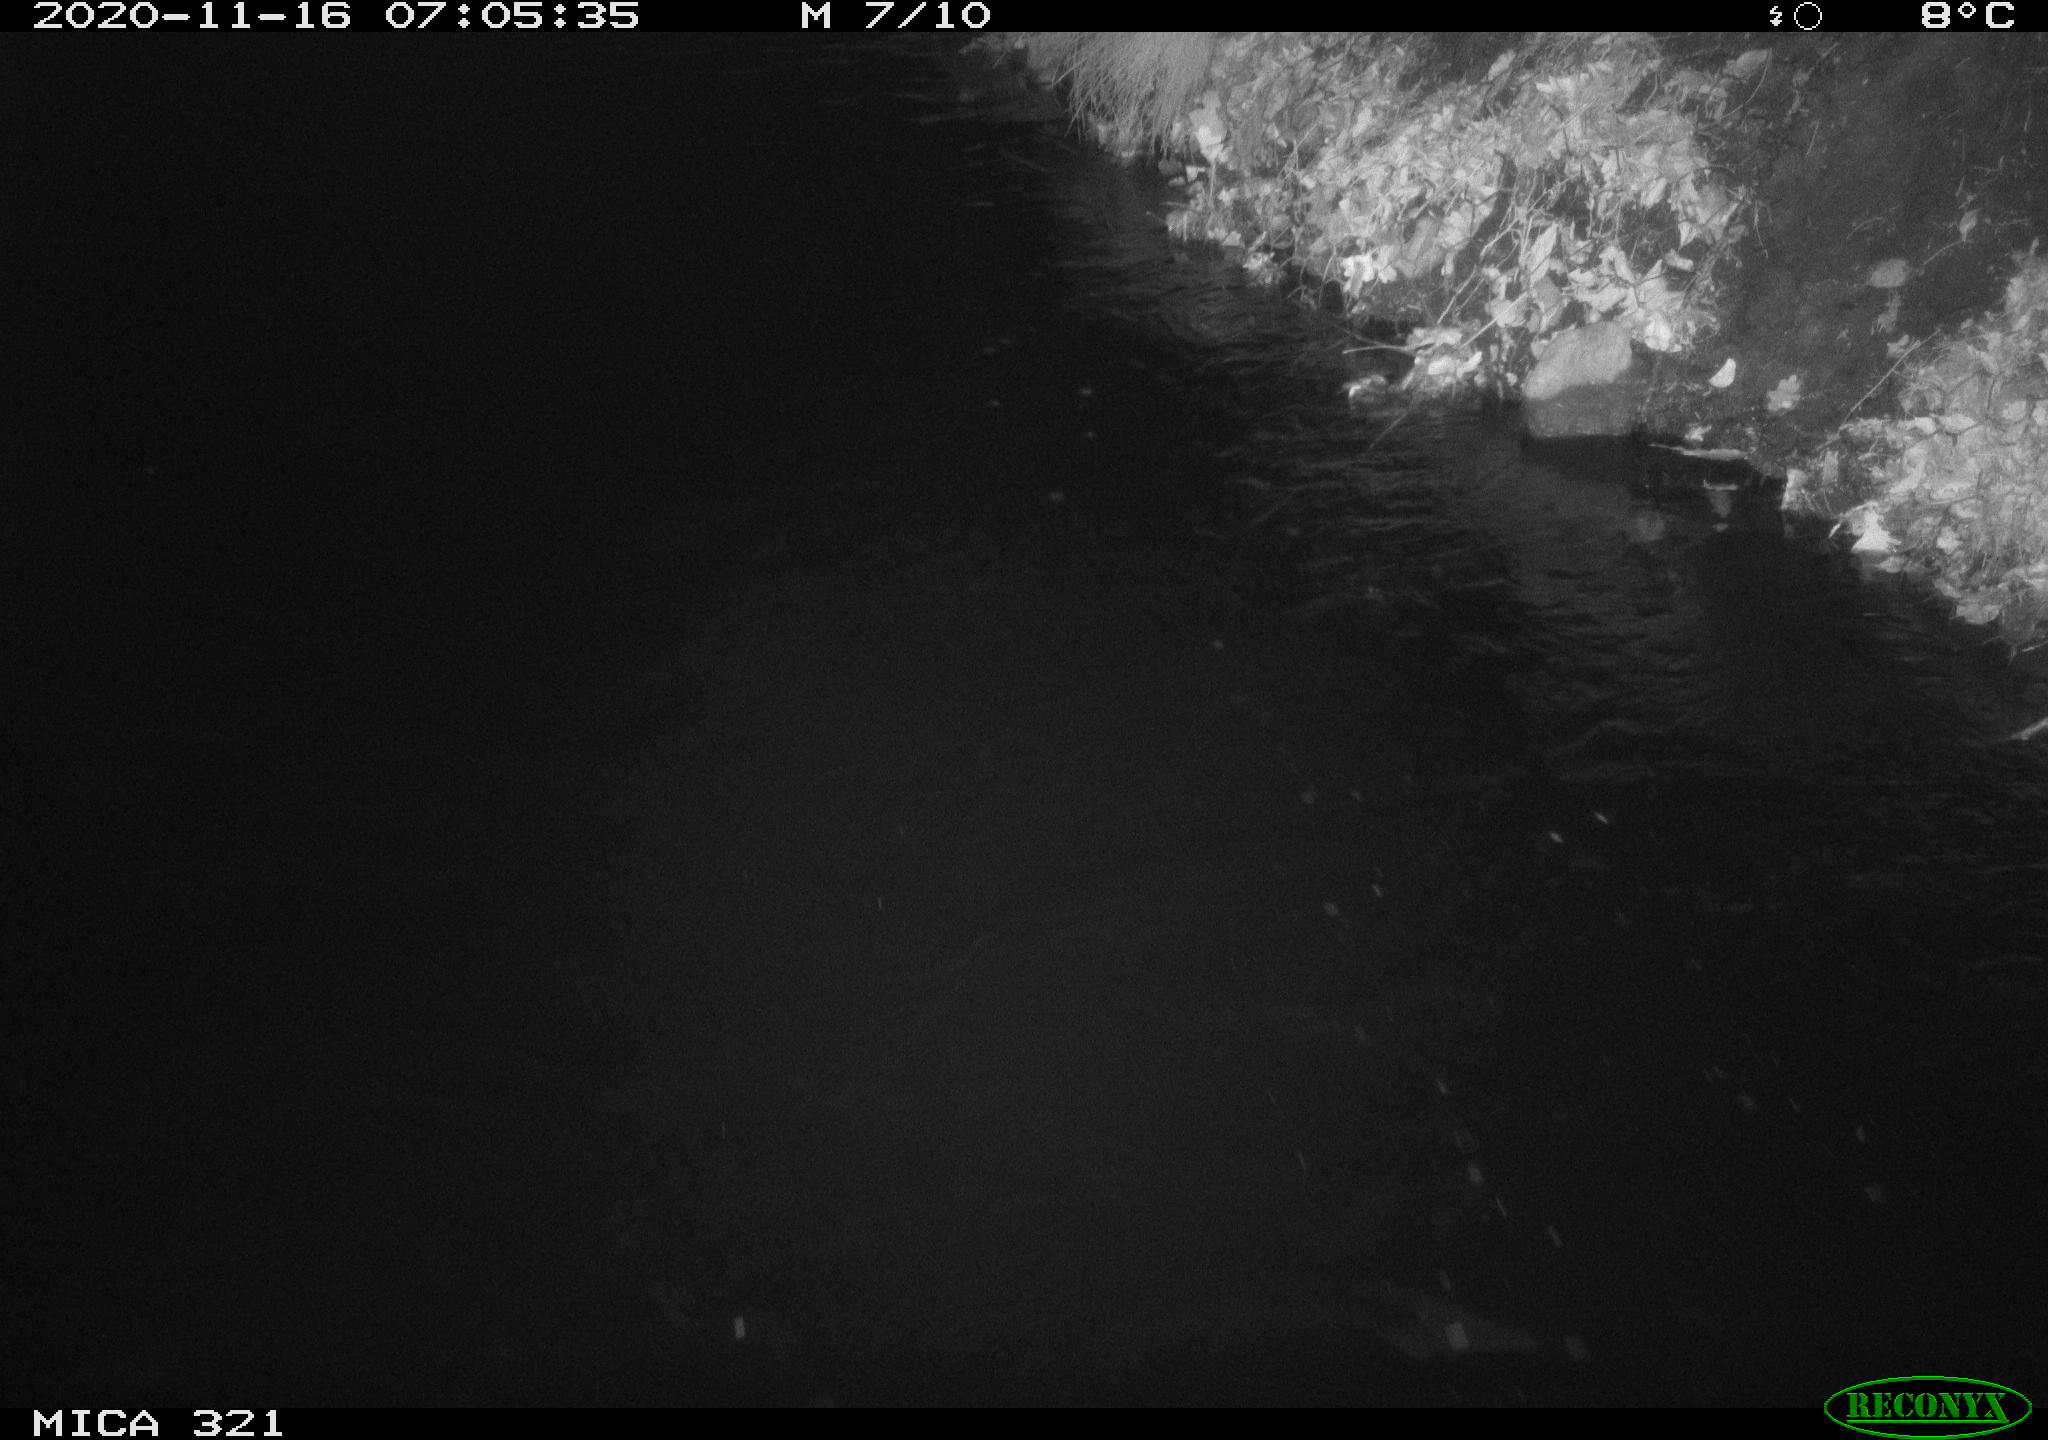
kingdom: Animalia
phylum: Chordata
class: Aves
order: Anseriformes
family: Anatidae
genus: Anas
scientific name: Anas platyrhynchos
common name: Mallard
